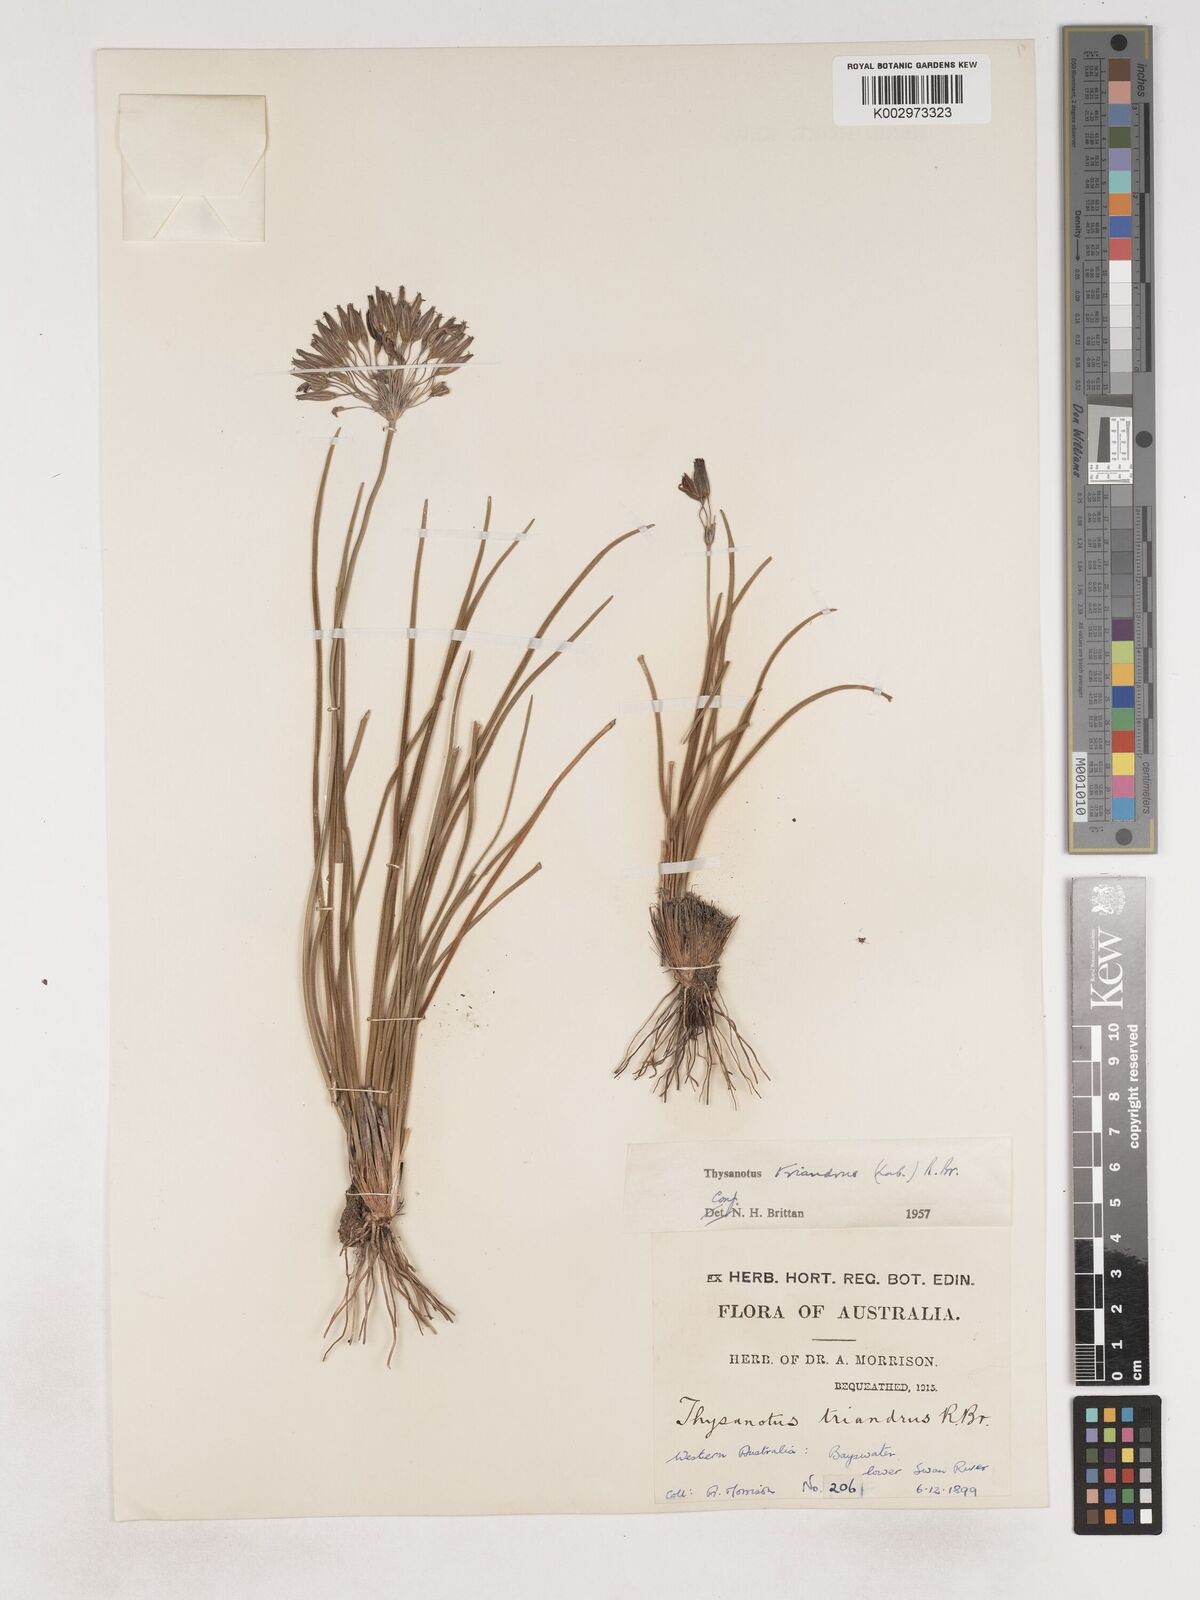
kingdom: Plantae
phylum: Tracheophyta
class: Liliopsida
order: Asparagales
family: Asparagaceae
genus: Thysanotus
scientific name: Thysanotus triandrus
